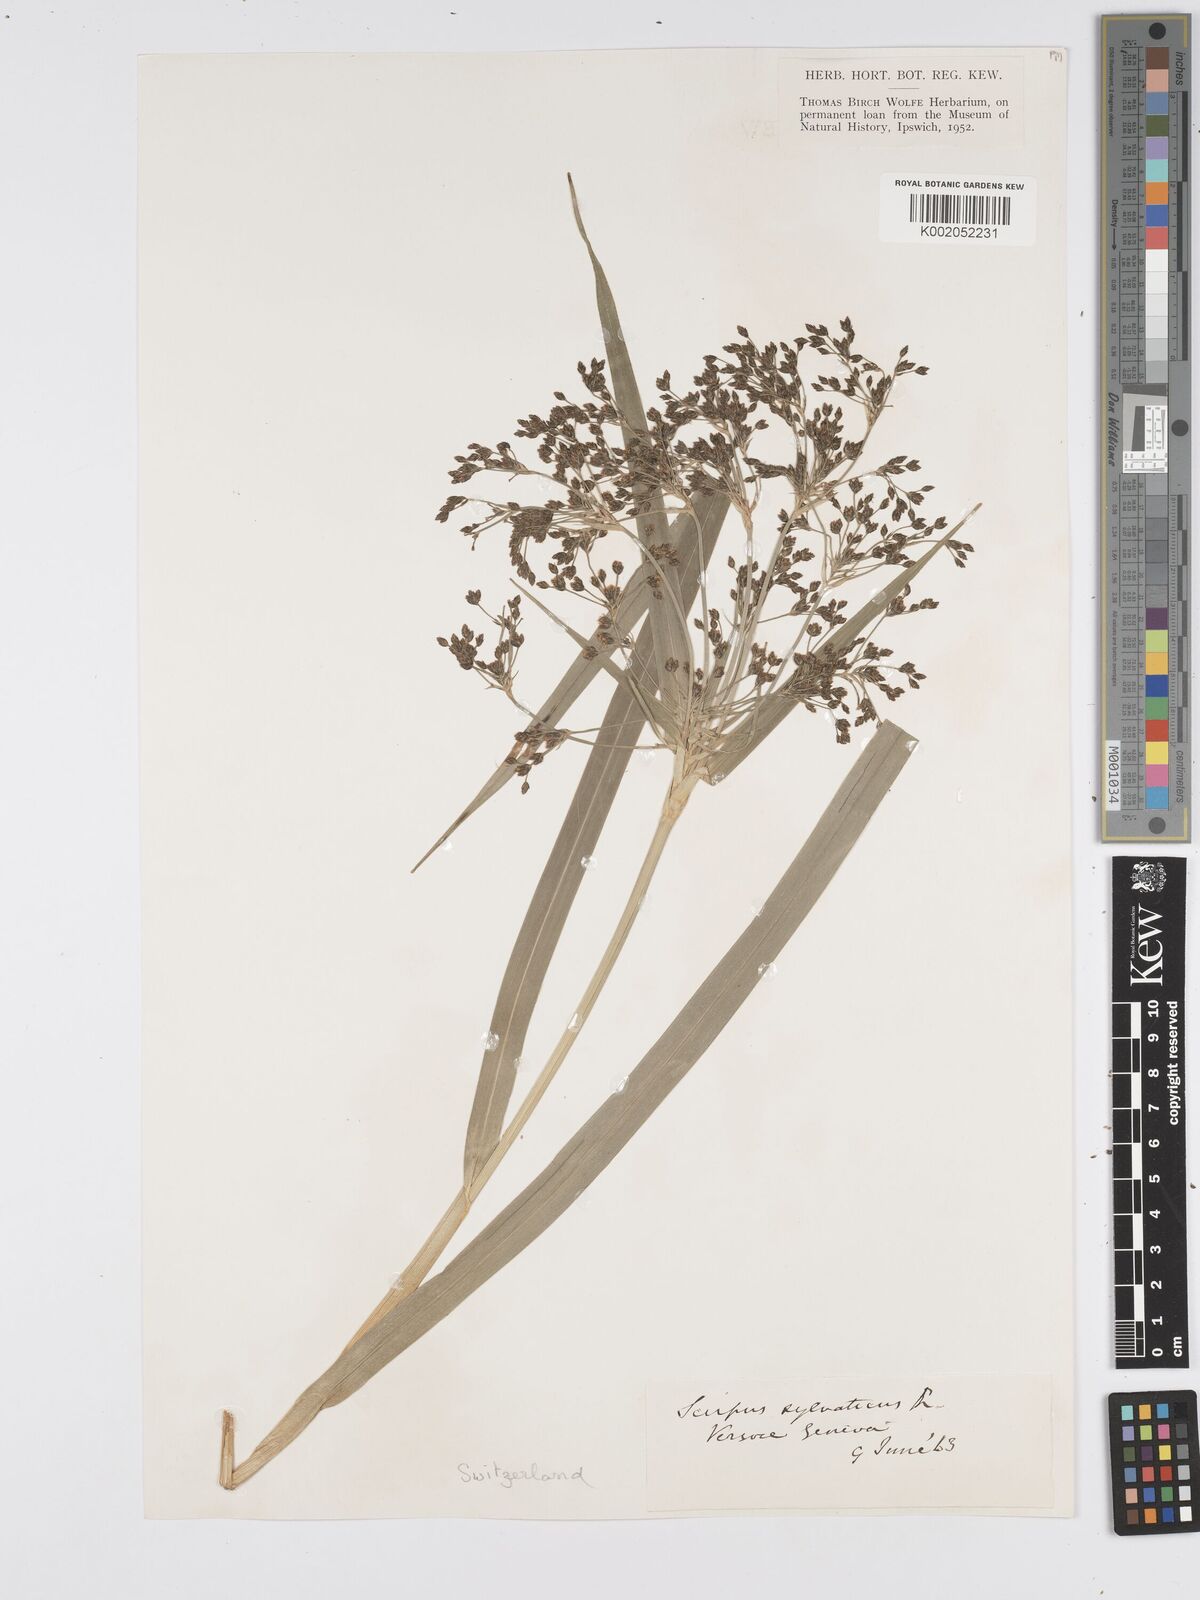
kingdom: Plantae
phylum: Tracheophyta
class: Liliopsida
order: Poales
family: Cyperaceae
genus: Scirpus
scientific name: Scirpus sylvaticus
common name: Wood club-rush
